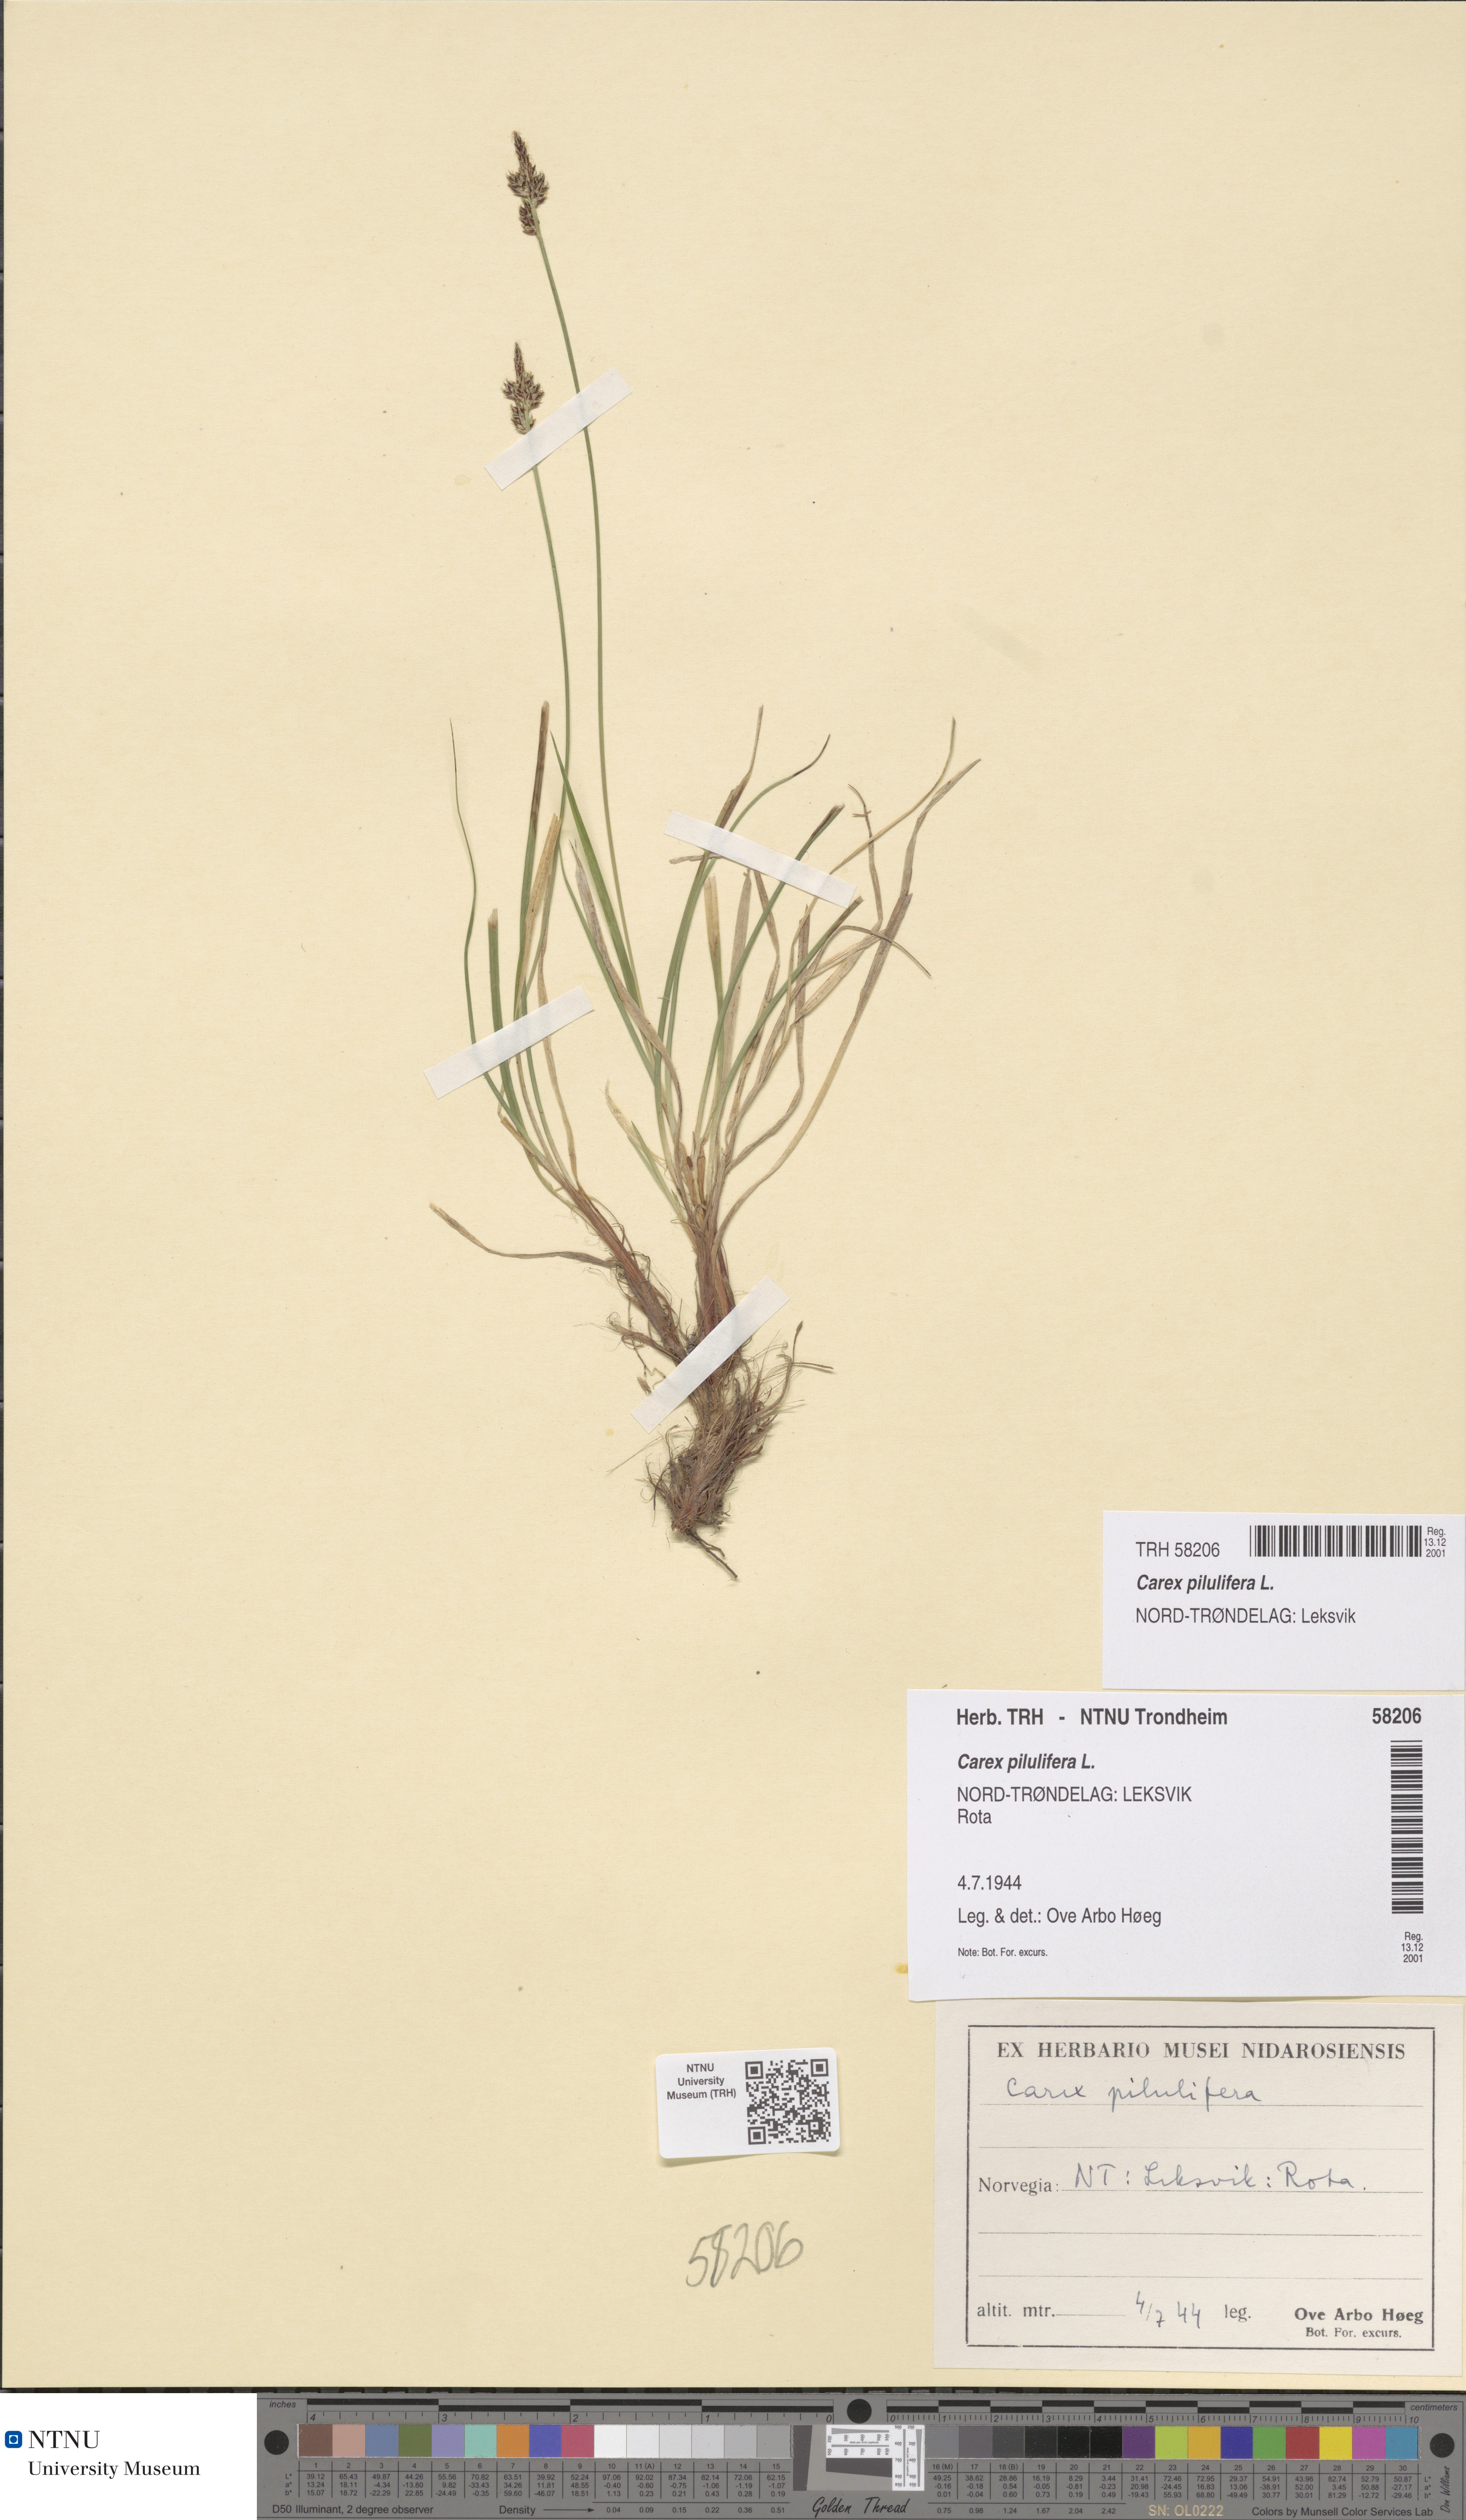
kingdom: Plantae
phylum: Tracheophyta
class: Liliopsida
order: Poales
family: Cyperaceae
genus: Carex
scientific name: Carex pilulifera
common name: Pill sedge
